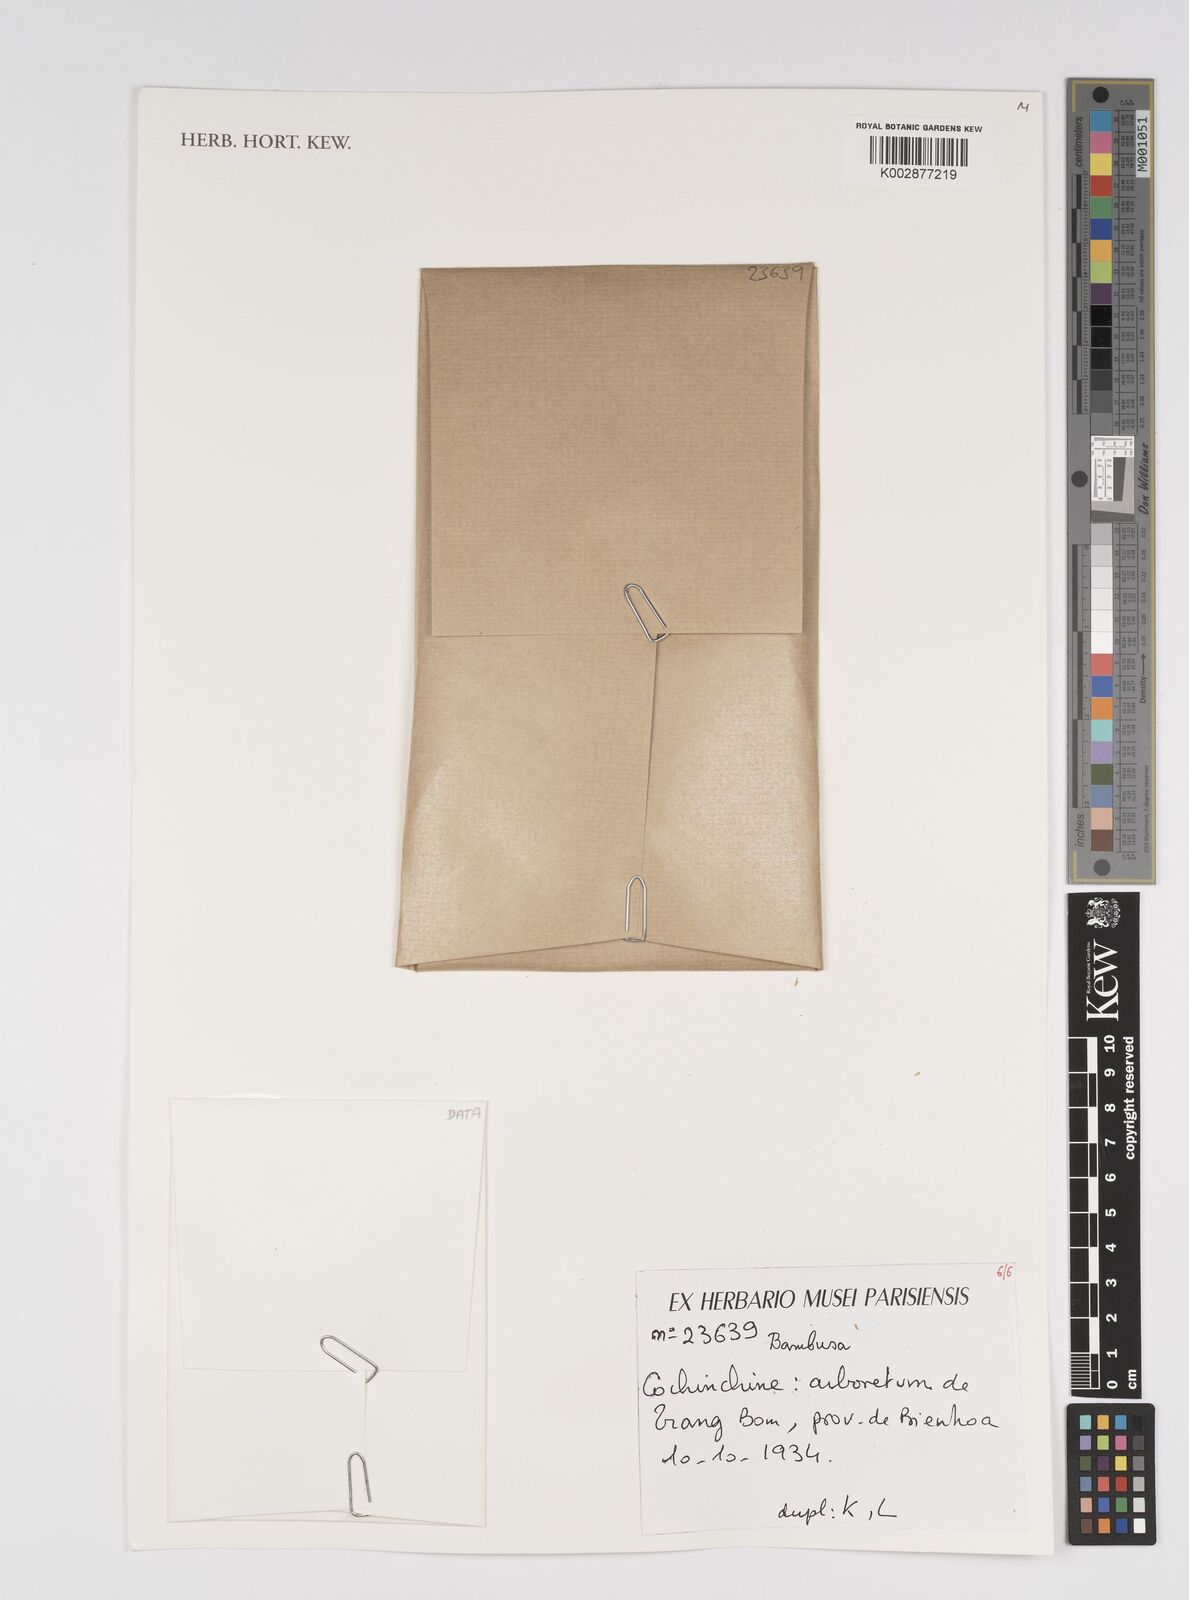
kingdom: Plantae
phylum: Tracheophyta
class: Liliopsida
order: Poales
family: Poaceae
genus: Bambusa
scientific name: Bambusa
